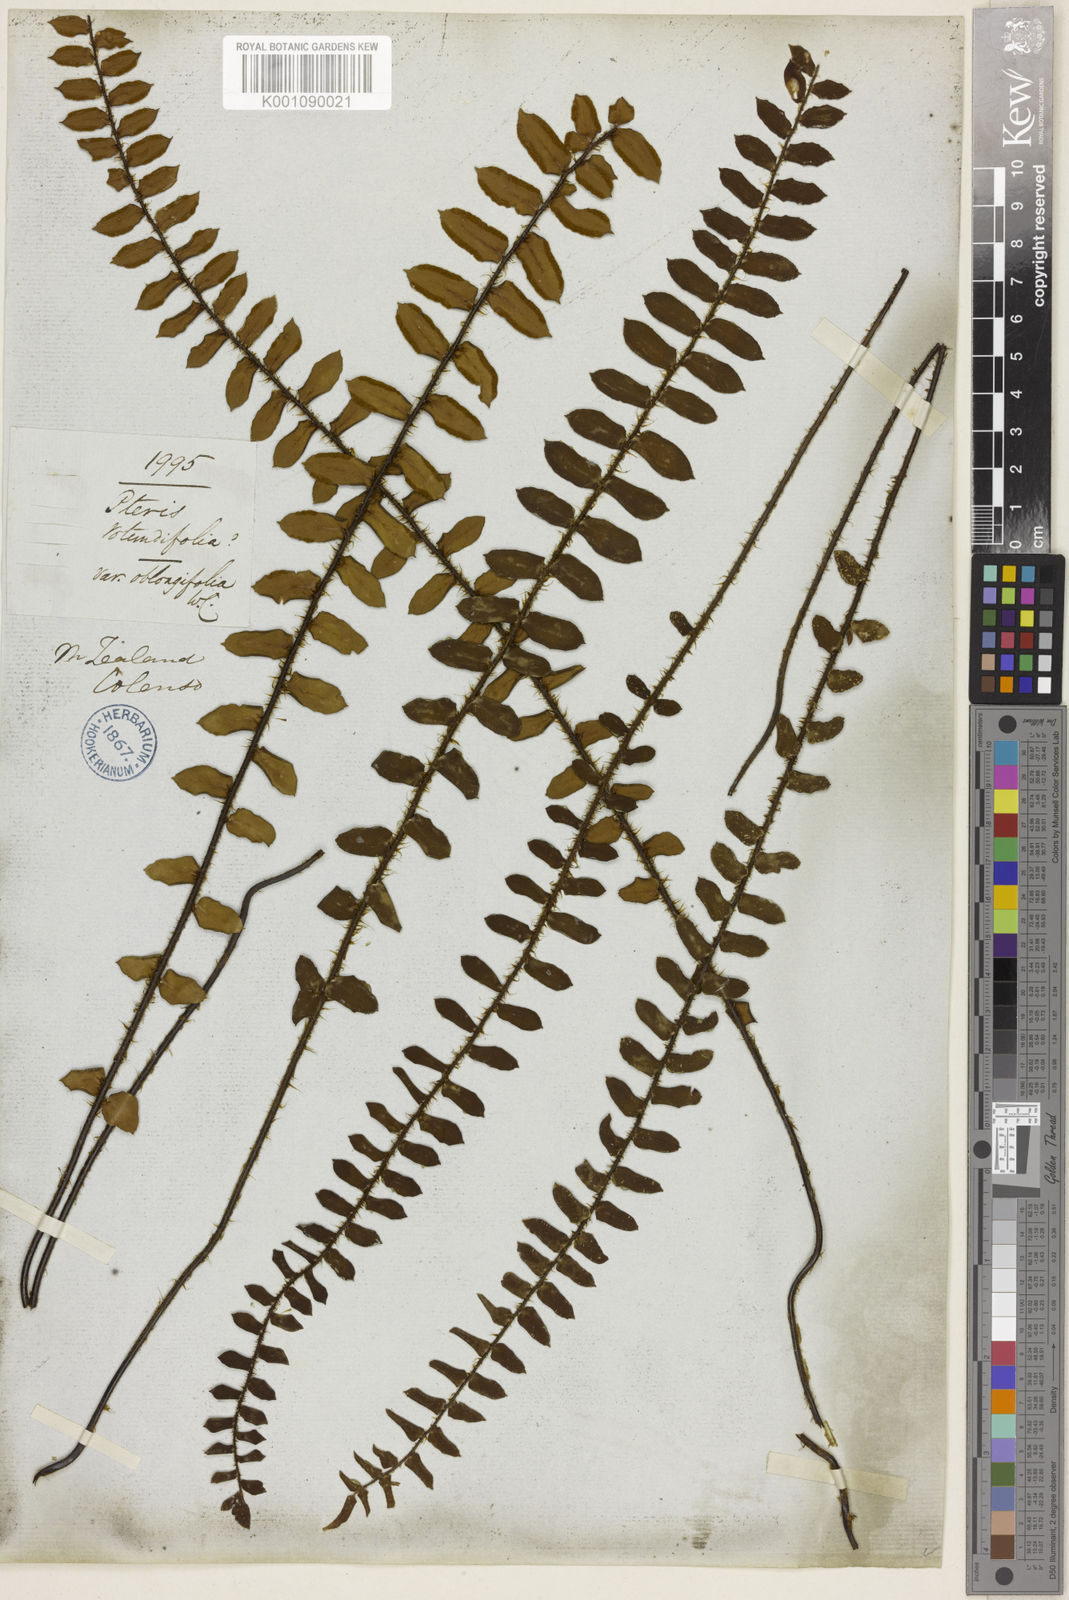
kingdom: Plantae
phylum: Tracheophyta
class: Polypodiopsida
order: Polypodiales
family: Pteridaceae
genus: Pellaea
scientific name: Pellaea rotundifolia
